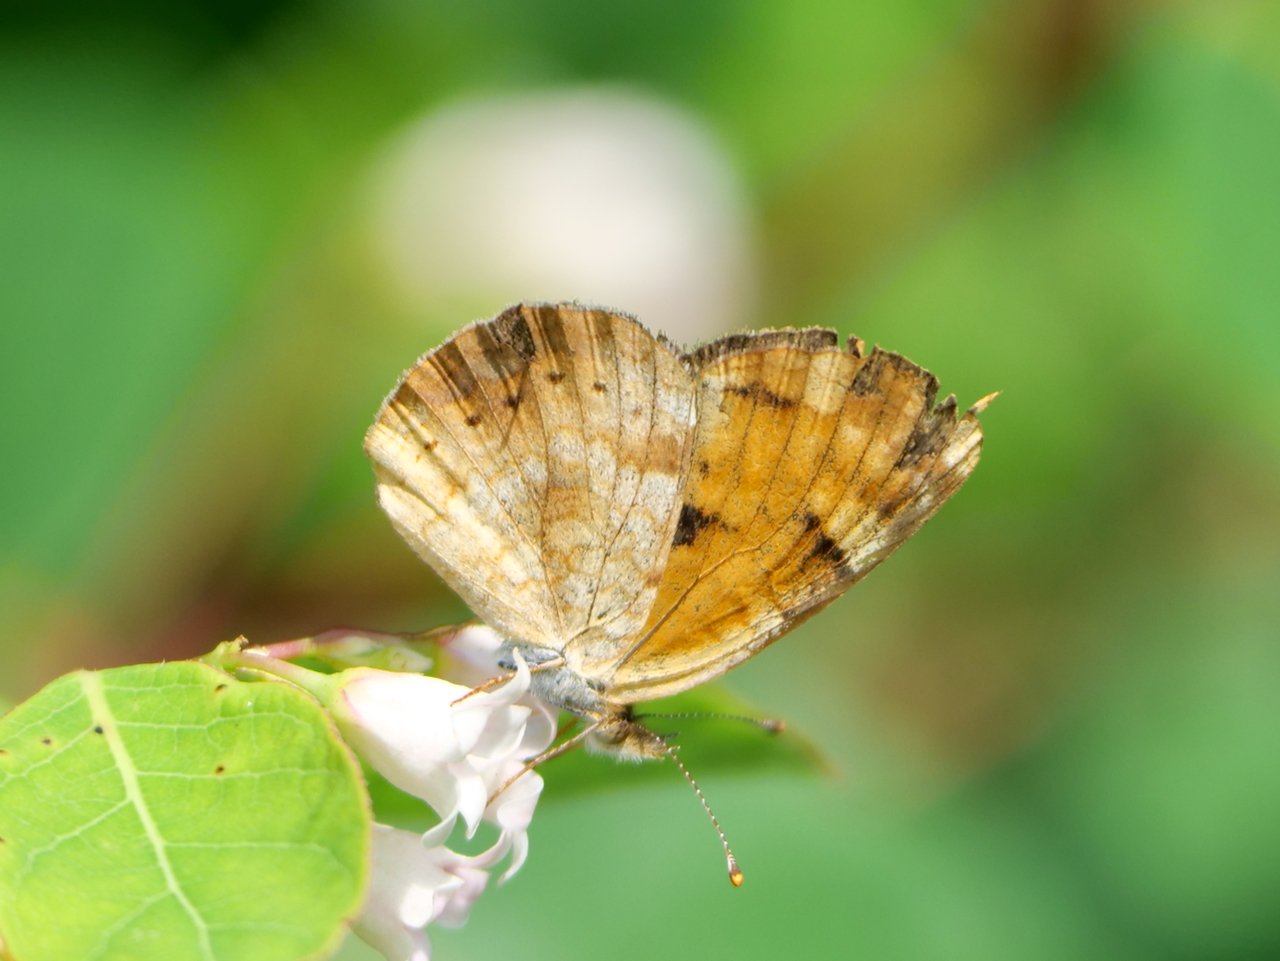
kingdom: Animalia
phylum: Arthropoda
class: Insecta
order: Lepidoptera
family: Nymphalidae
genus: Phyciodes
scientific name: Phyciodes tharos
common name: Northern Crescent
